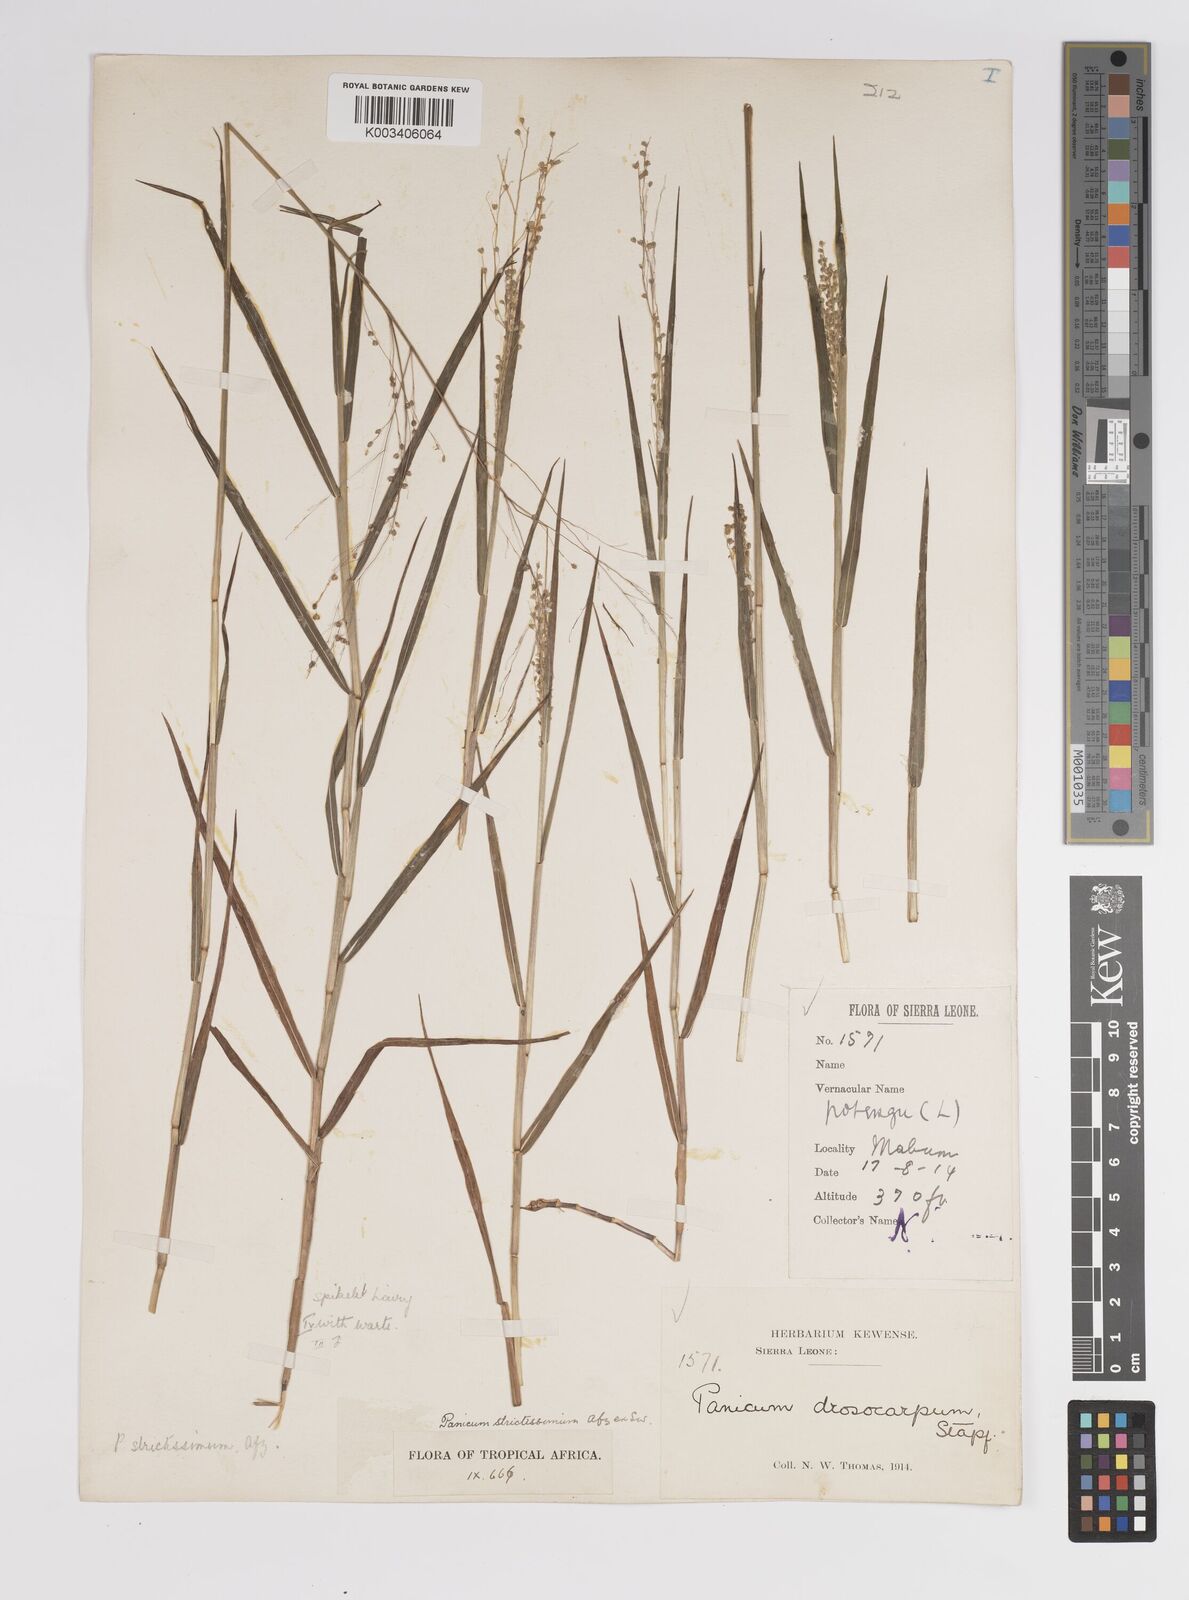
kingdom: Plantae
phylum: Tracheophyta
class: Liliopsida
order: Poales
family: Poaceae
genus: Panicum
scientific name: Panicum eickii
